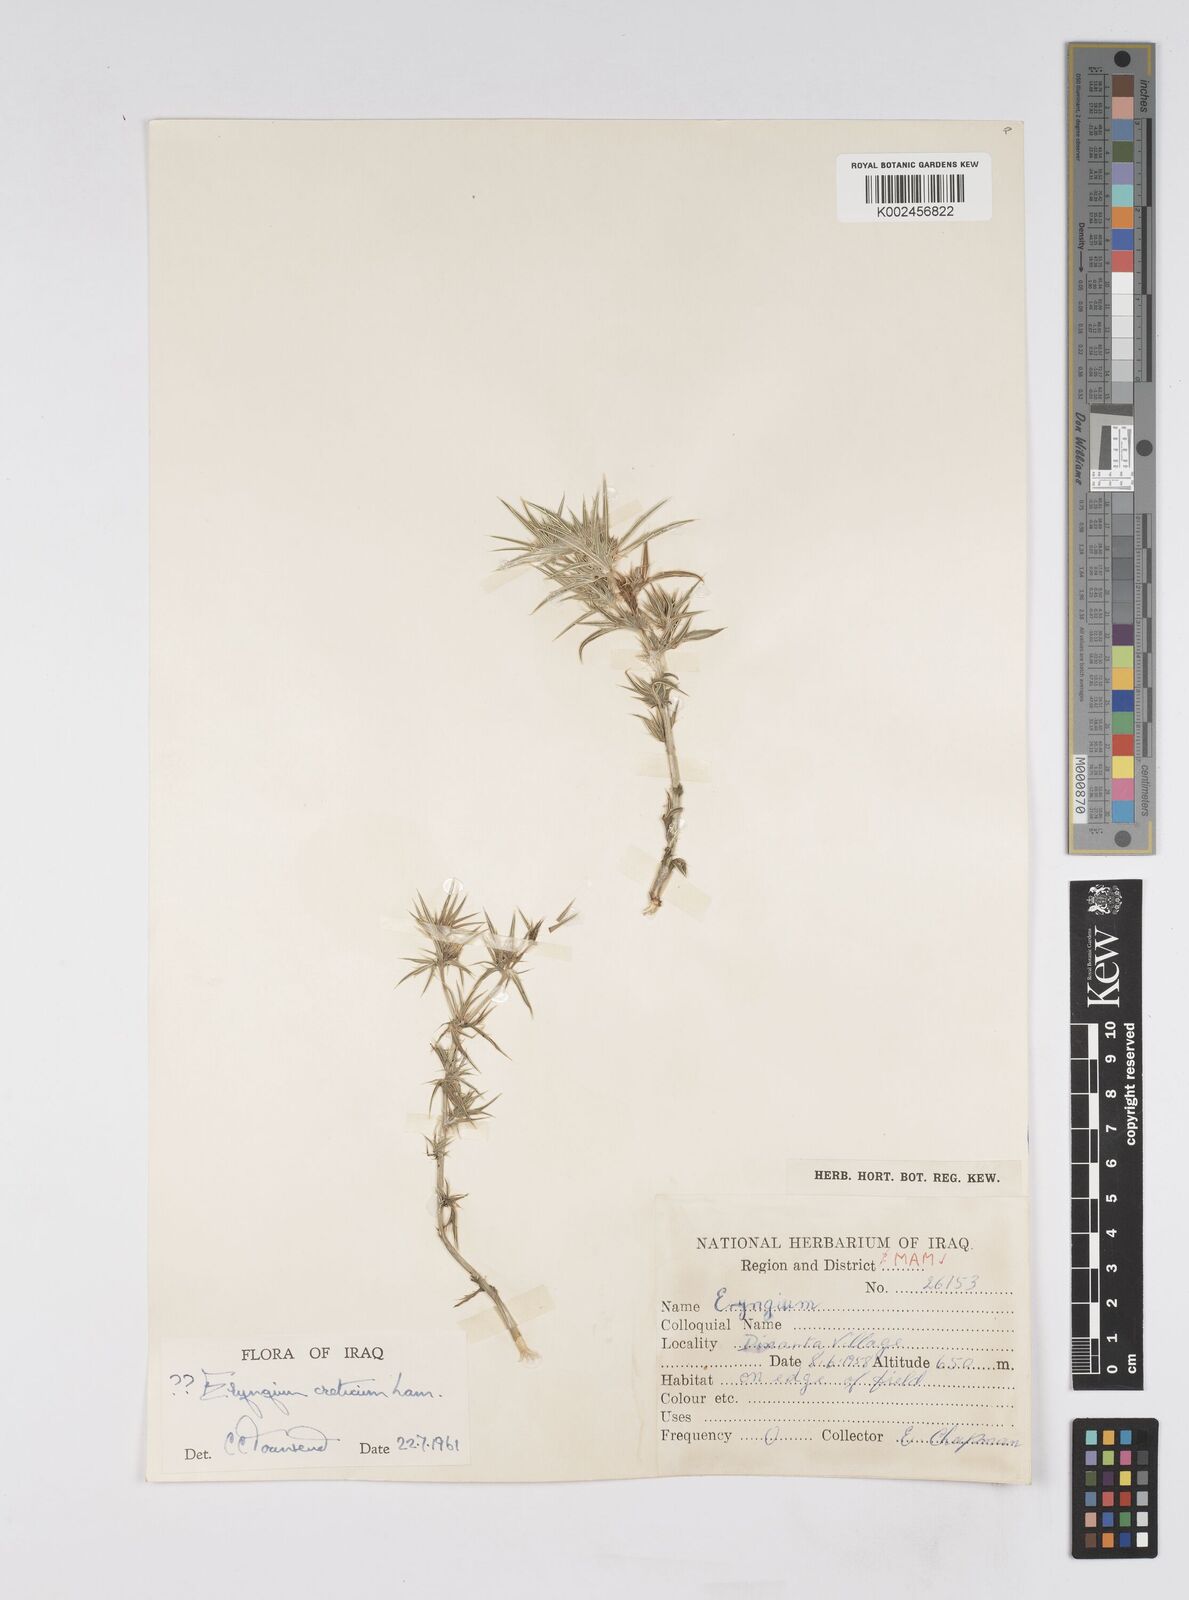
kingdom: Plantae
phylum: Tracheophyta
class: Magnoliopsida
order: Apiales
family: Apiaceae
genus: Eryngium
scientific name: Eryngium creticum
